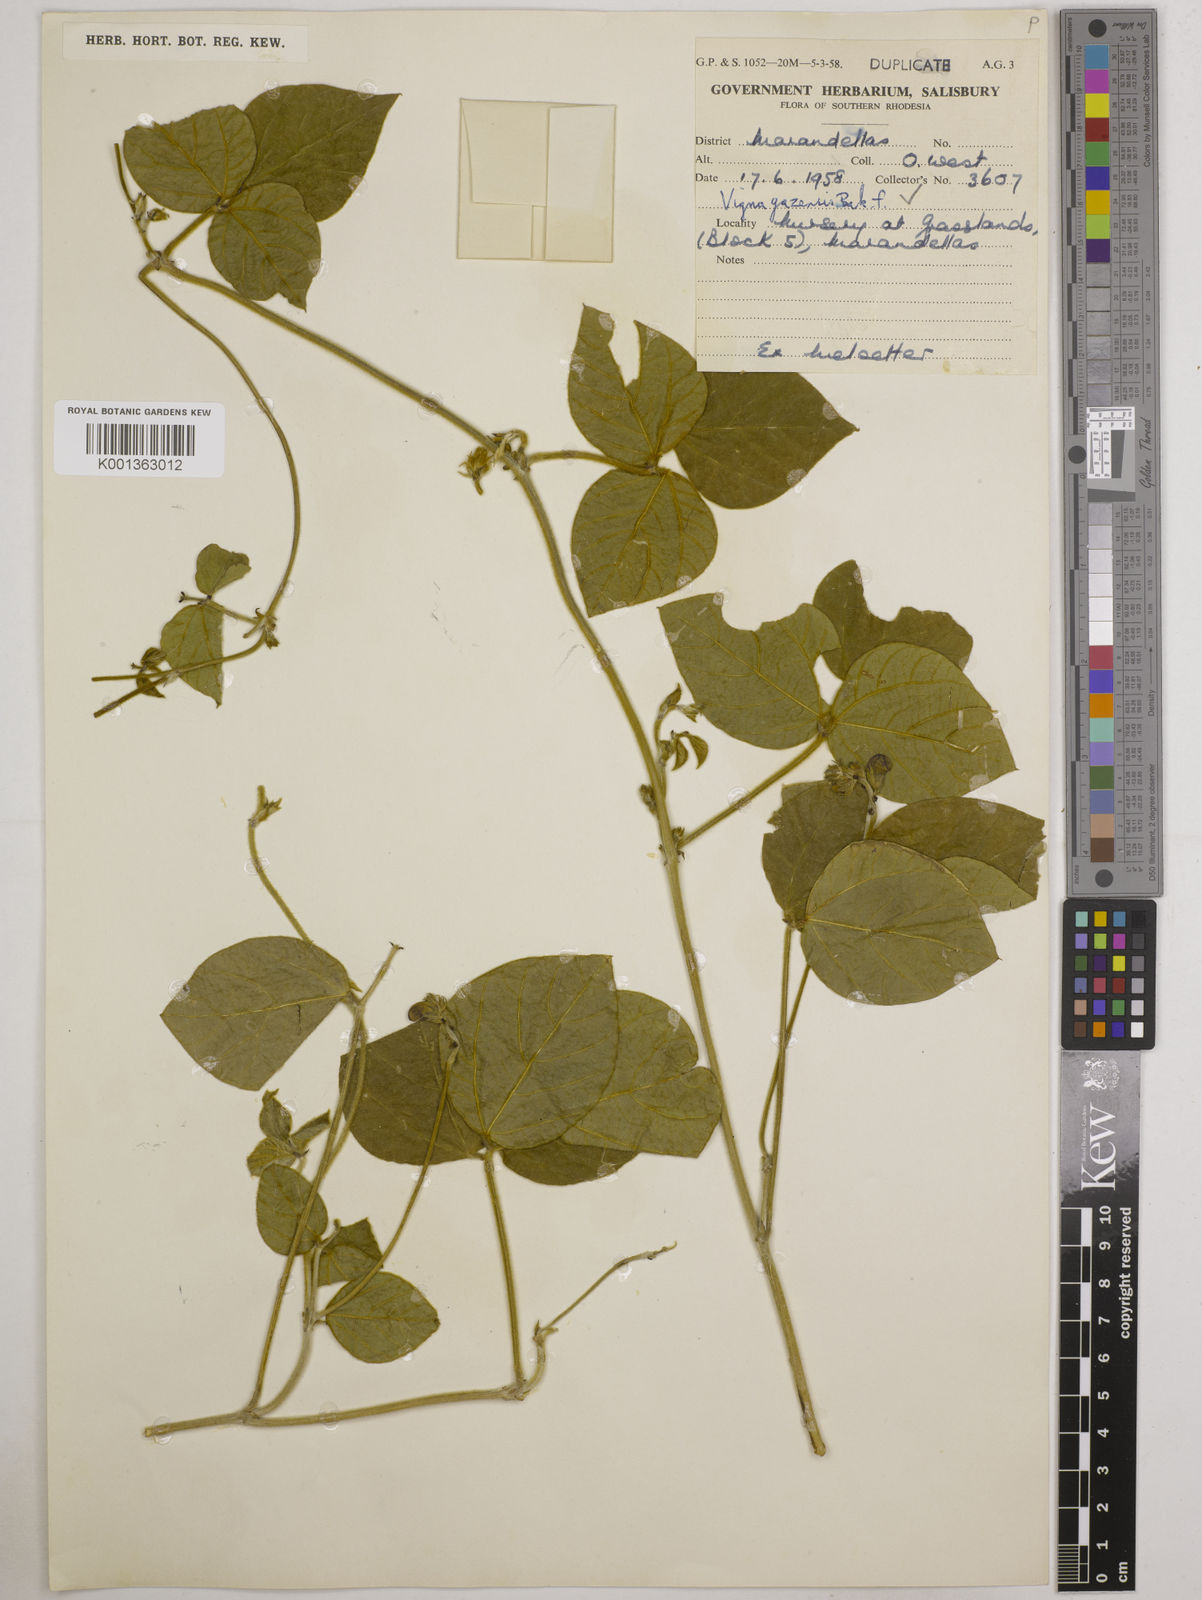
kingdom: Plantae
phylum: Tracheophyta
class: Magnoliopsida
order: Fabales
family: Fabaceae
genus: Vigna
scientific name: Vigna gazensis
